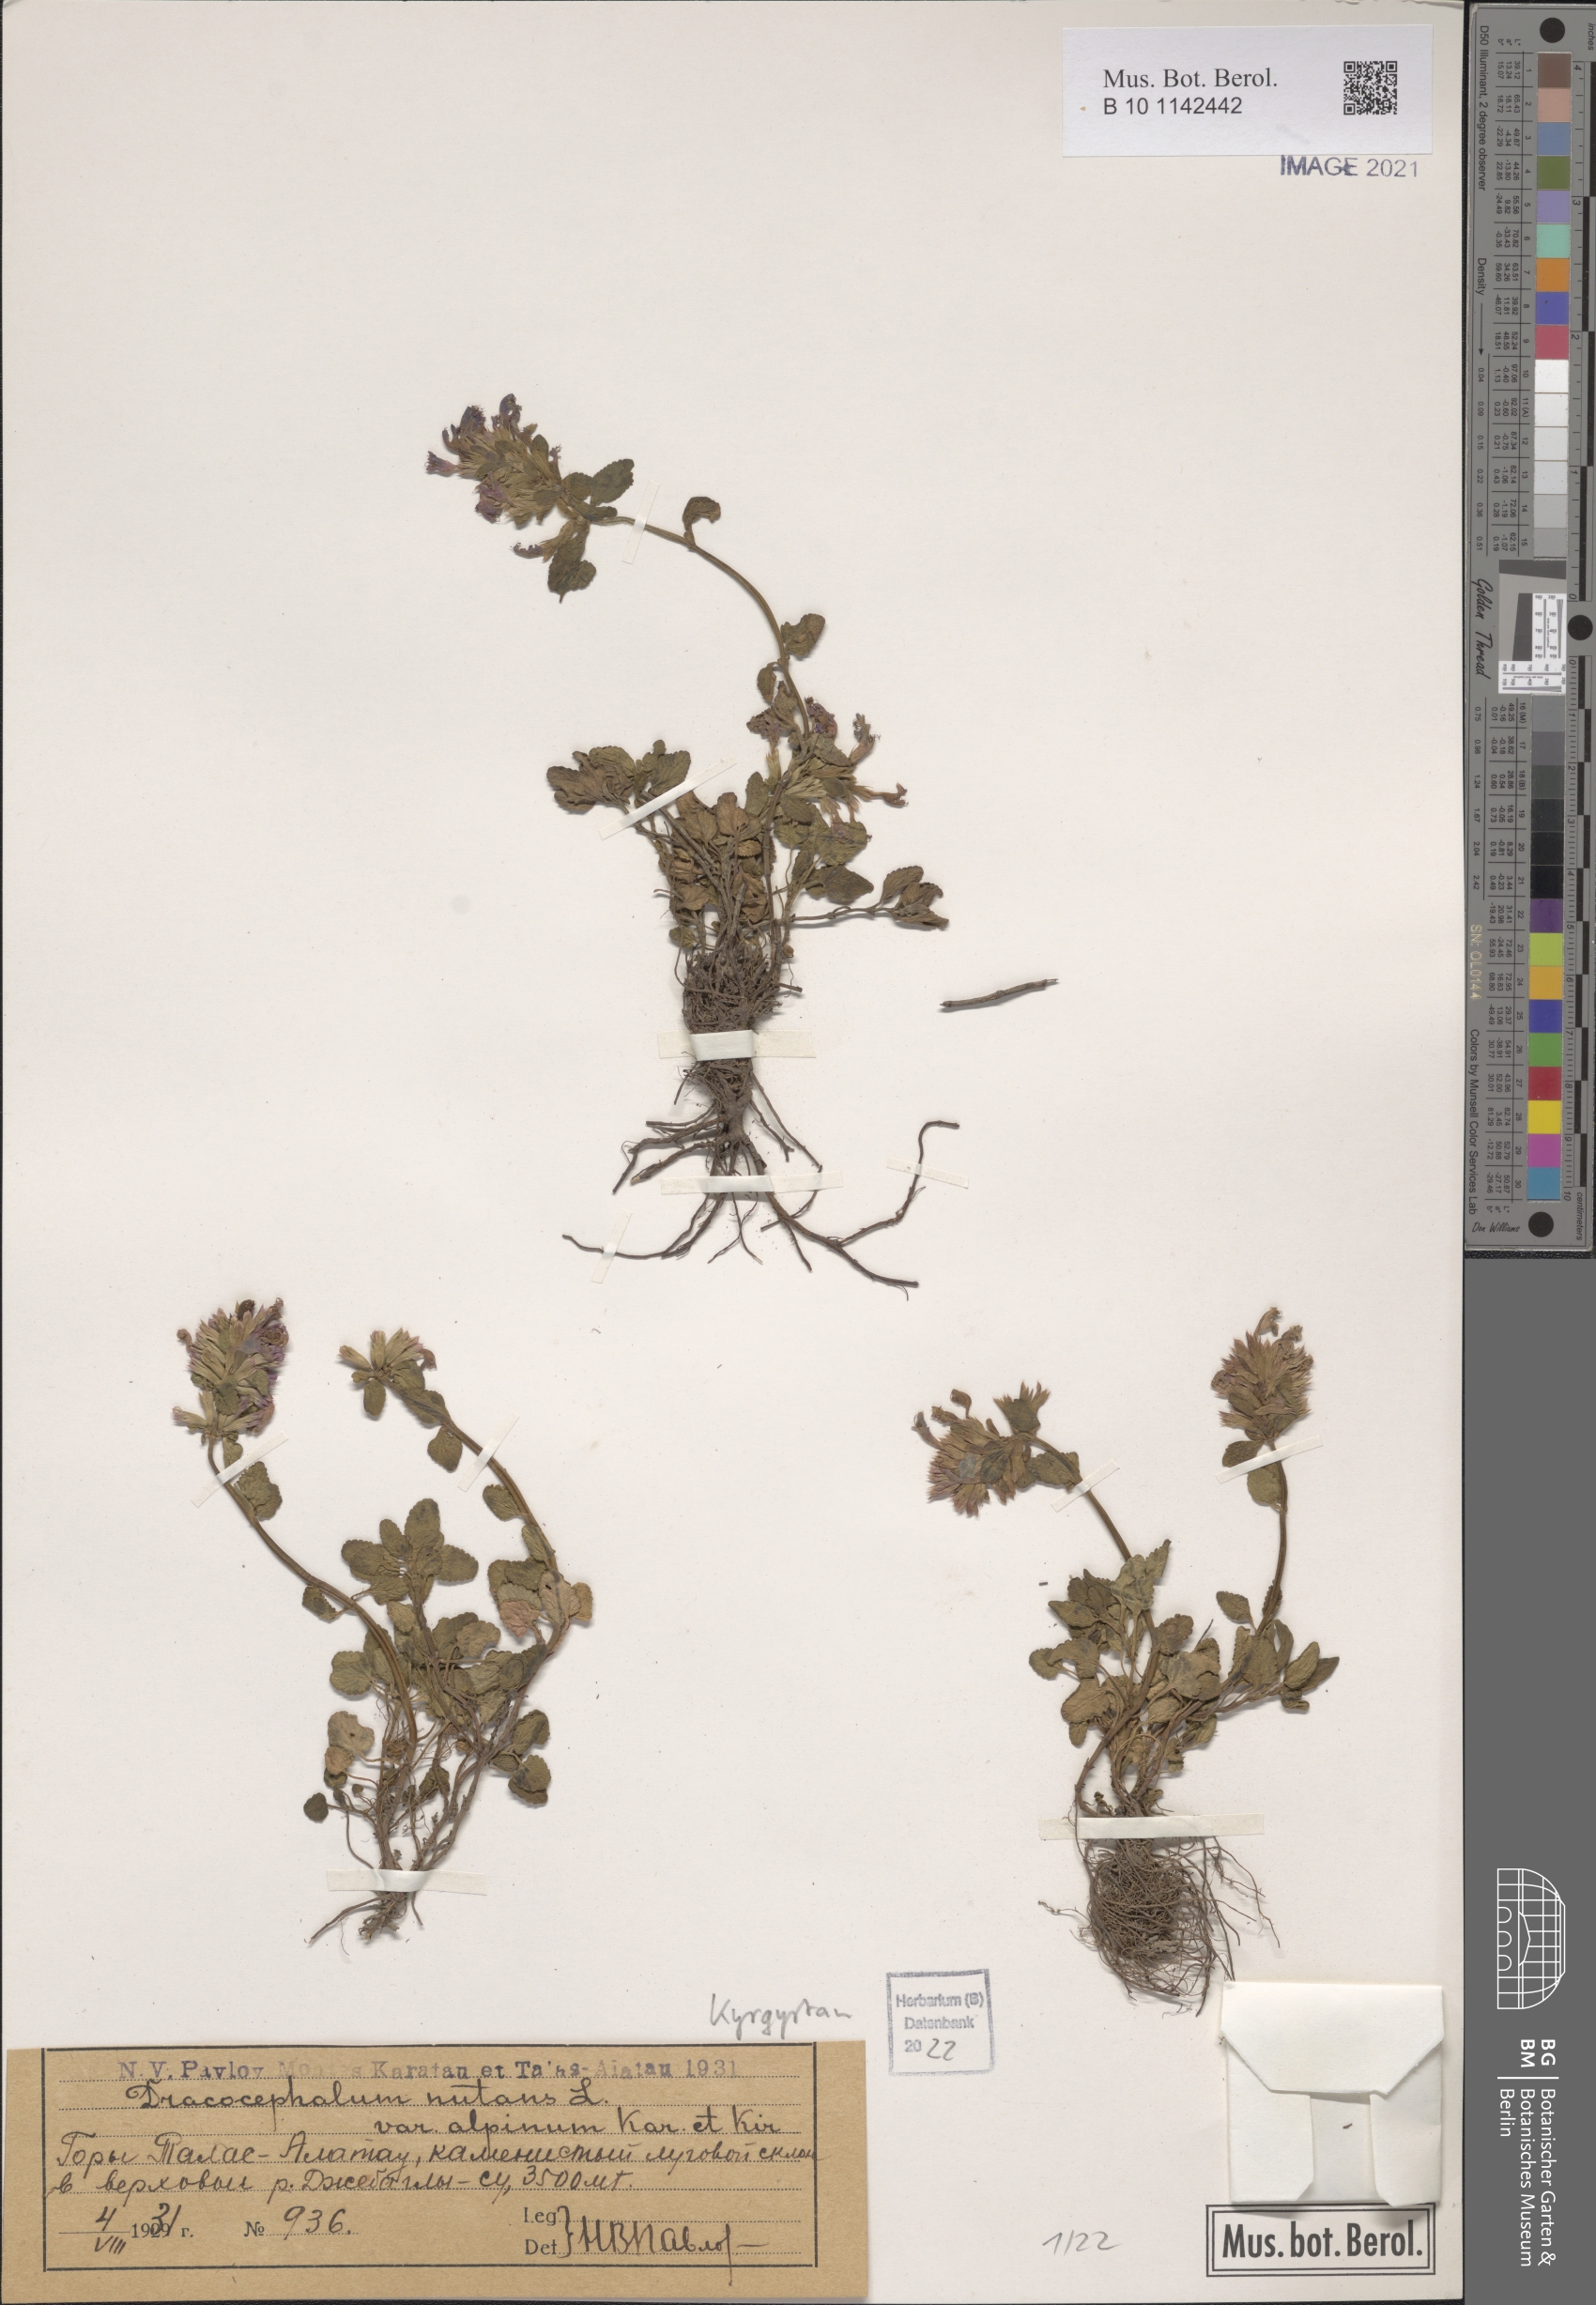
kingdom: Plantae
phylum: Tracheophyta
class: Magnoliopsida
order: Lamiales
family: Lamiaceae
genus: Dracocephalum
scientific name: Dracocephalum nutans
